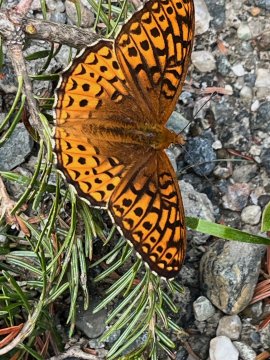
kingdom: Animalia
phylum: Arthropoda
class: Insecta
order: Lepidoptera
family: Nymphalidae
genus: Speyeria
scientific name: Speyeria atlantis
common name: Atlantis Fritillary
